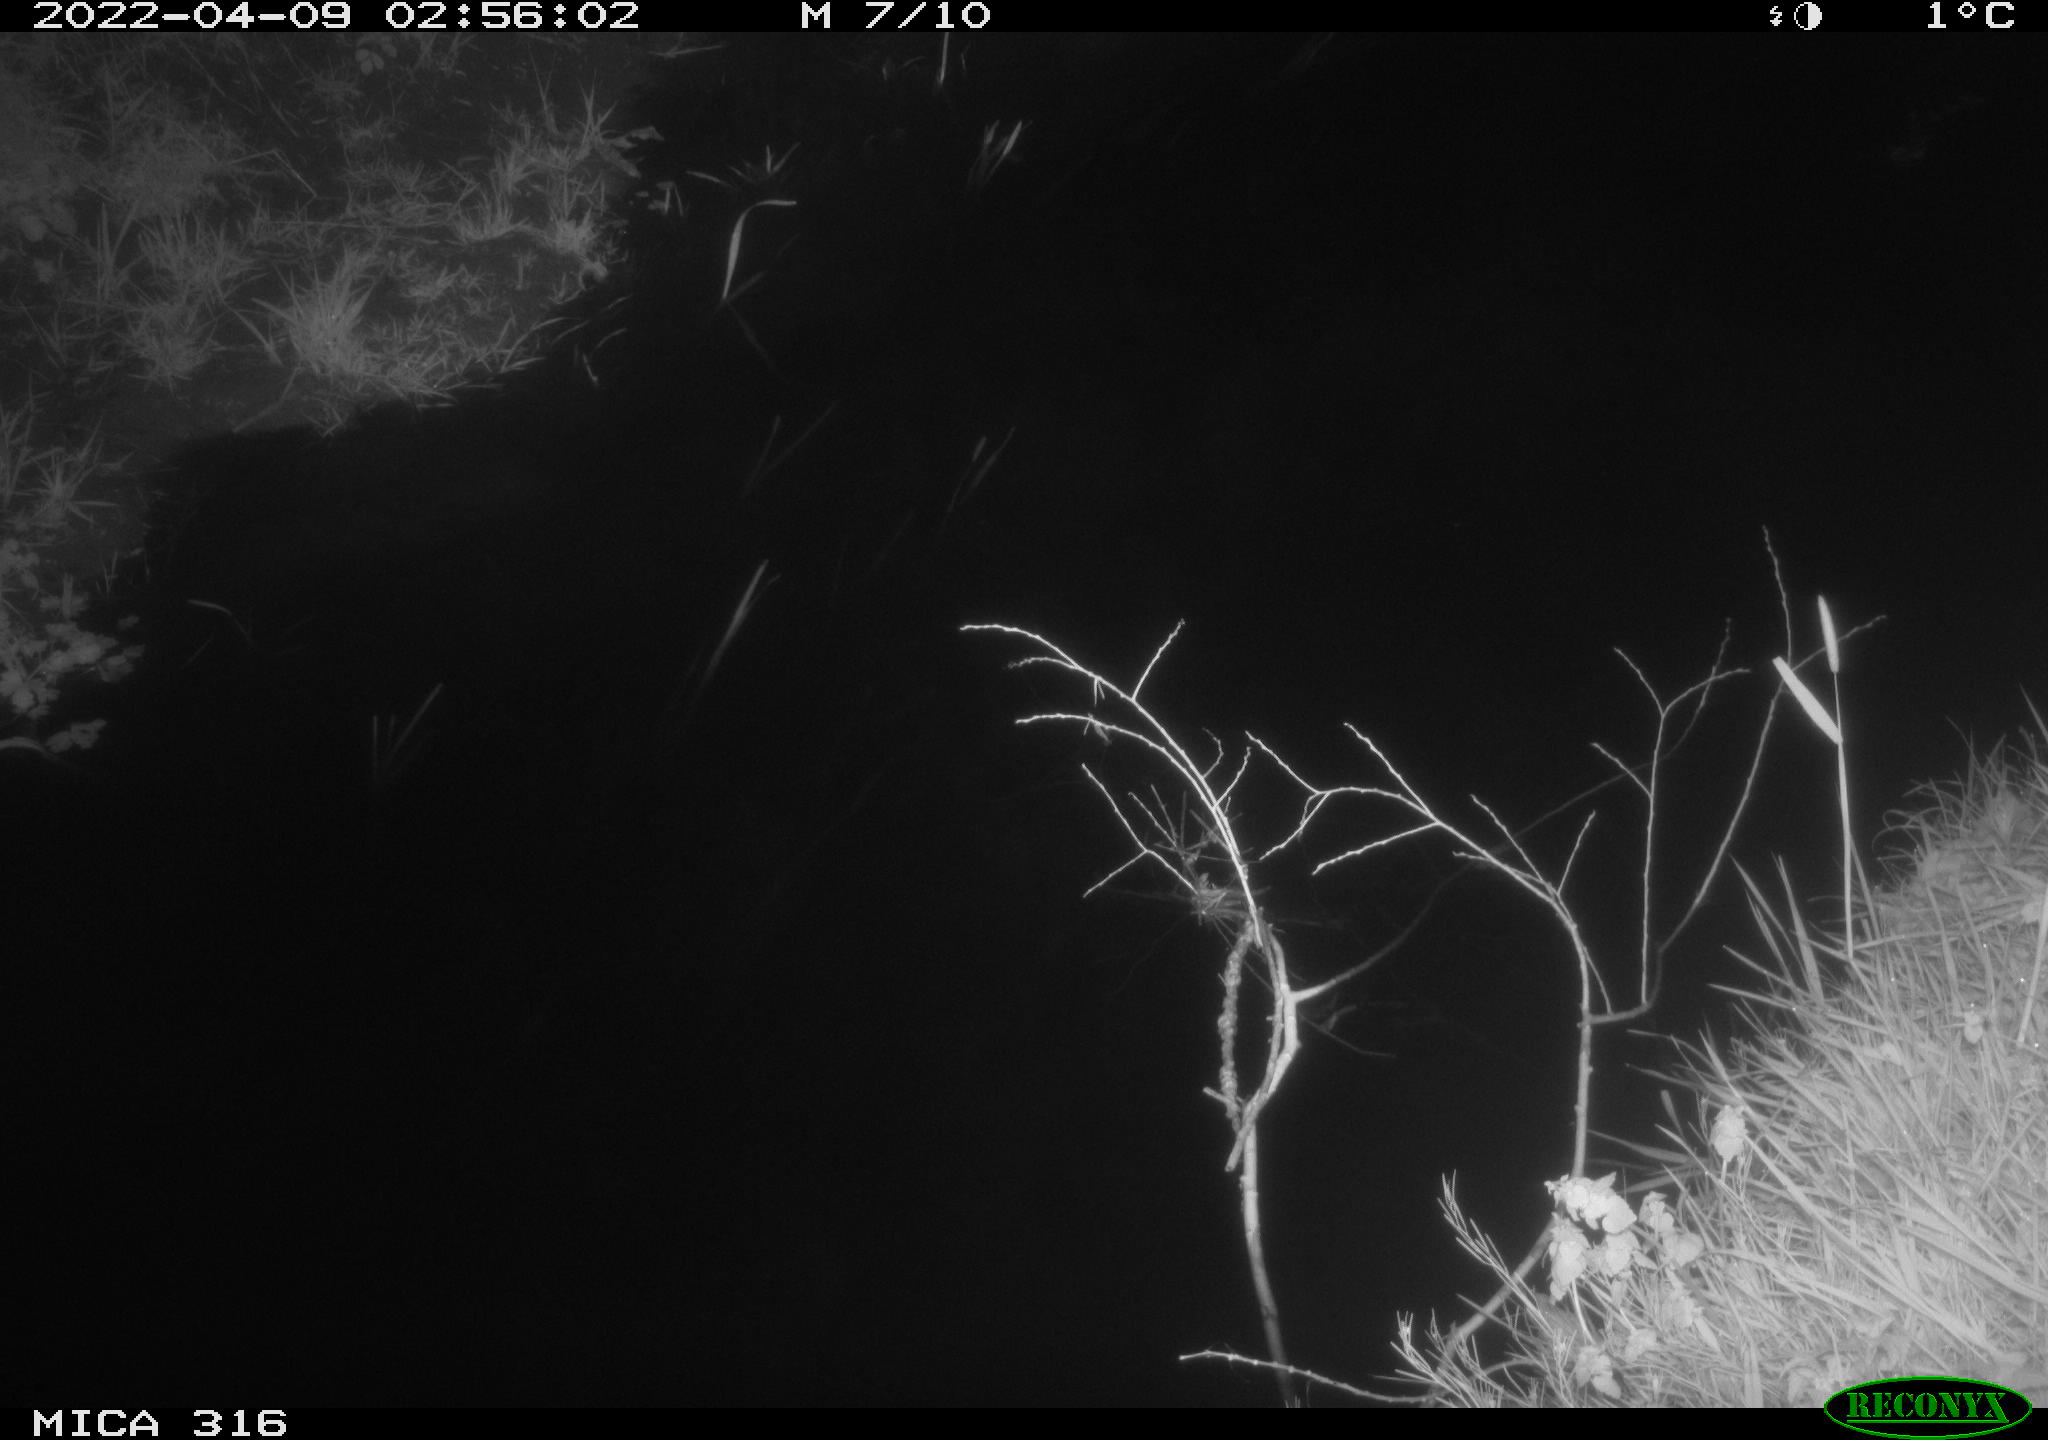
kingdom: Animalia
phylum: Chordata
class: Aves
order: Anseriformes
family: Anatidae
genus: Anas
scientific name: Anas platyrhynchos
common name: Mallard
